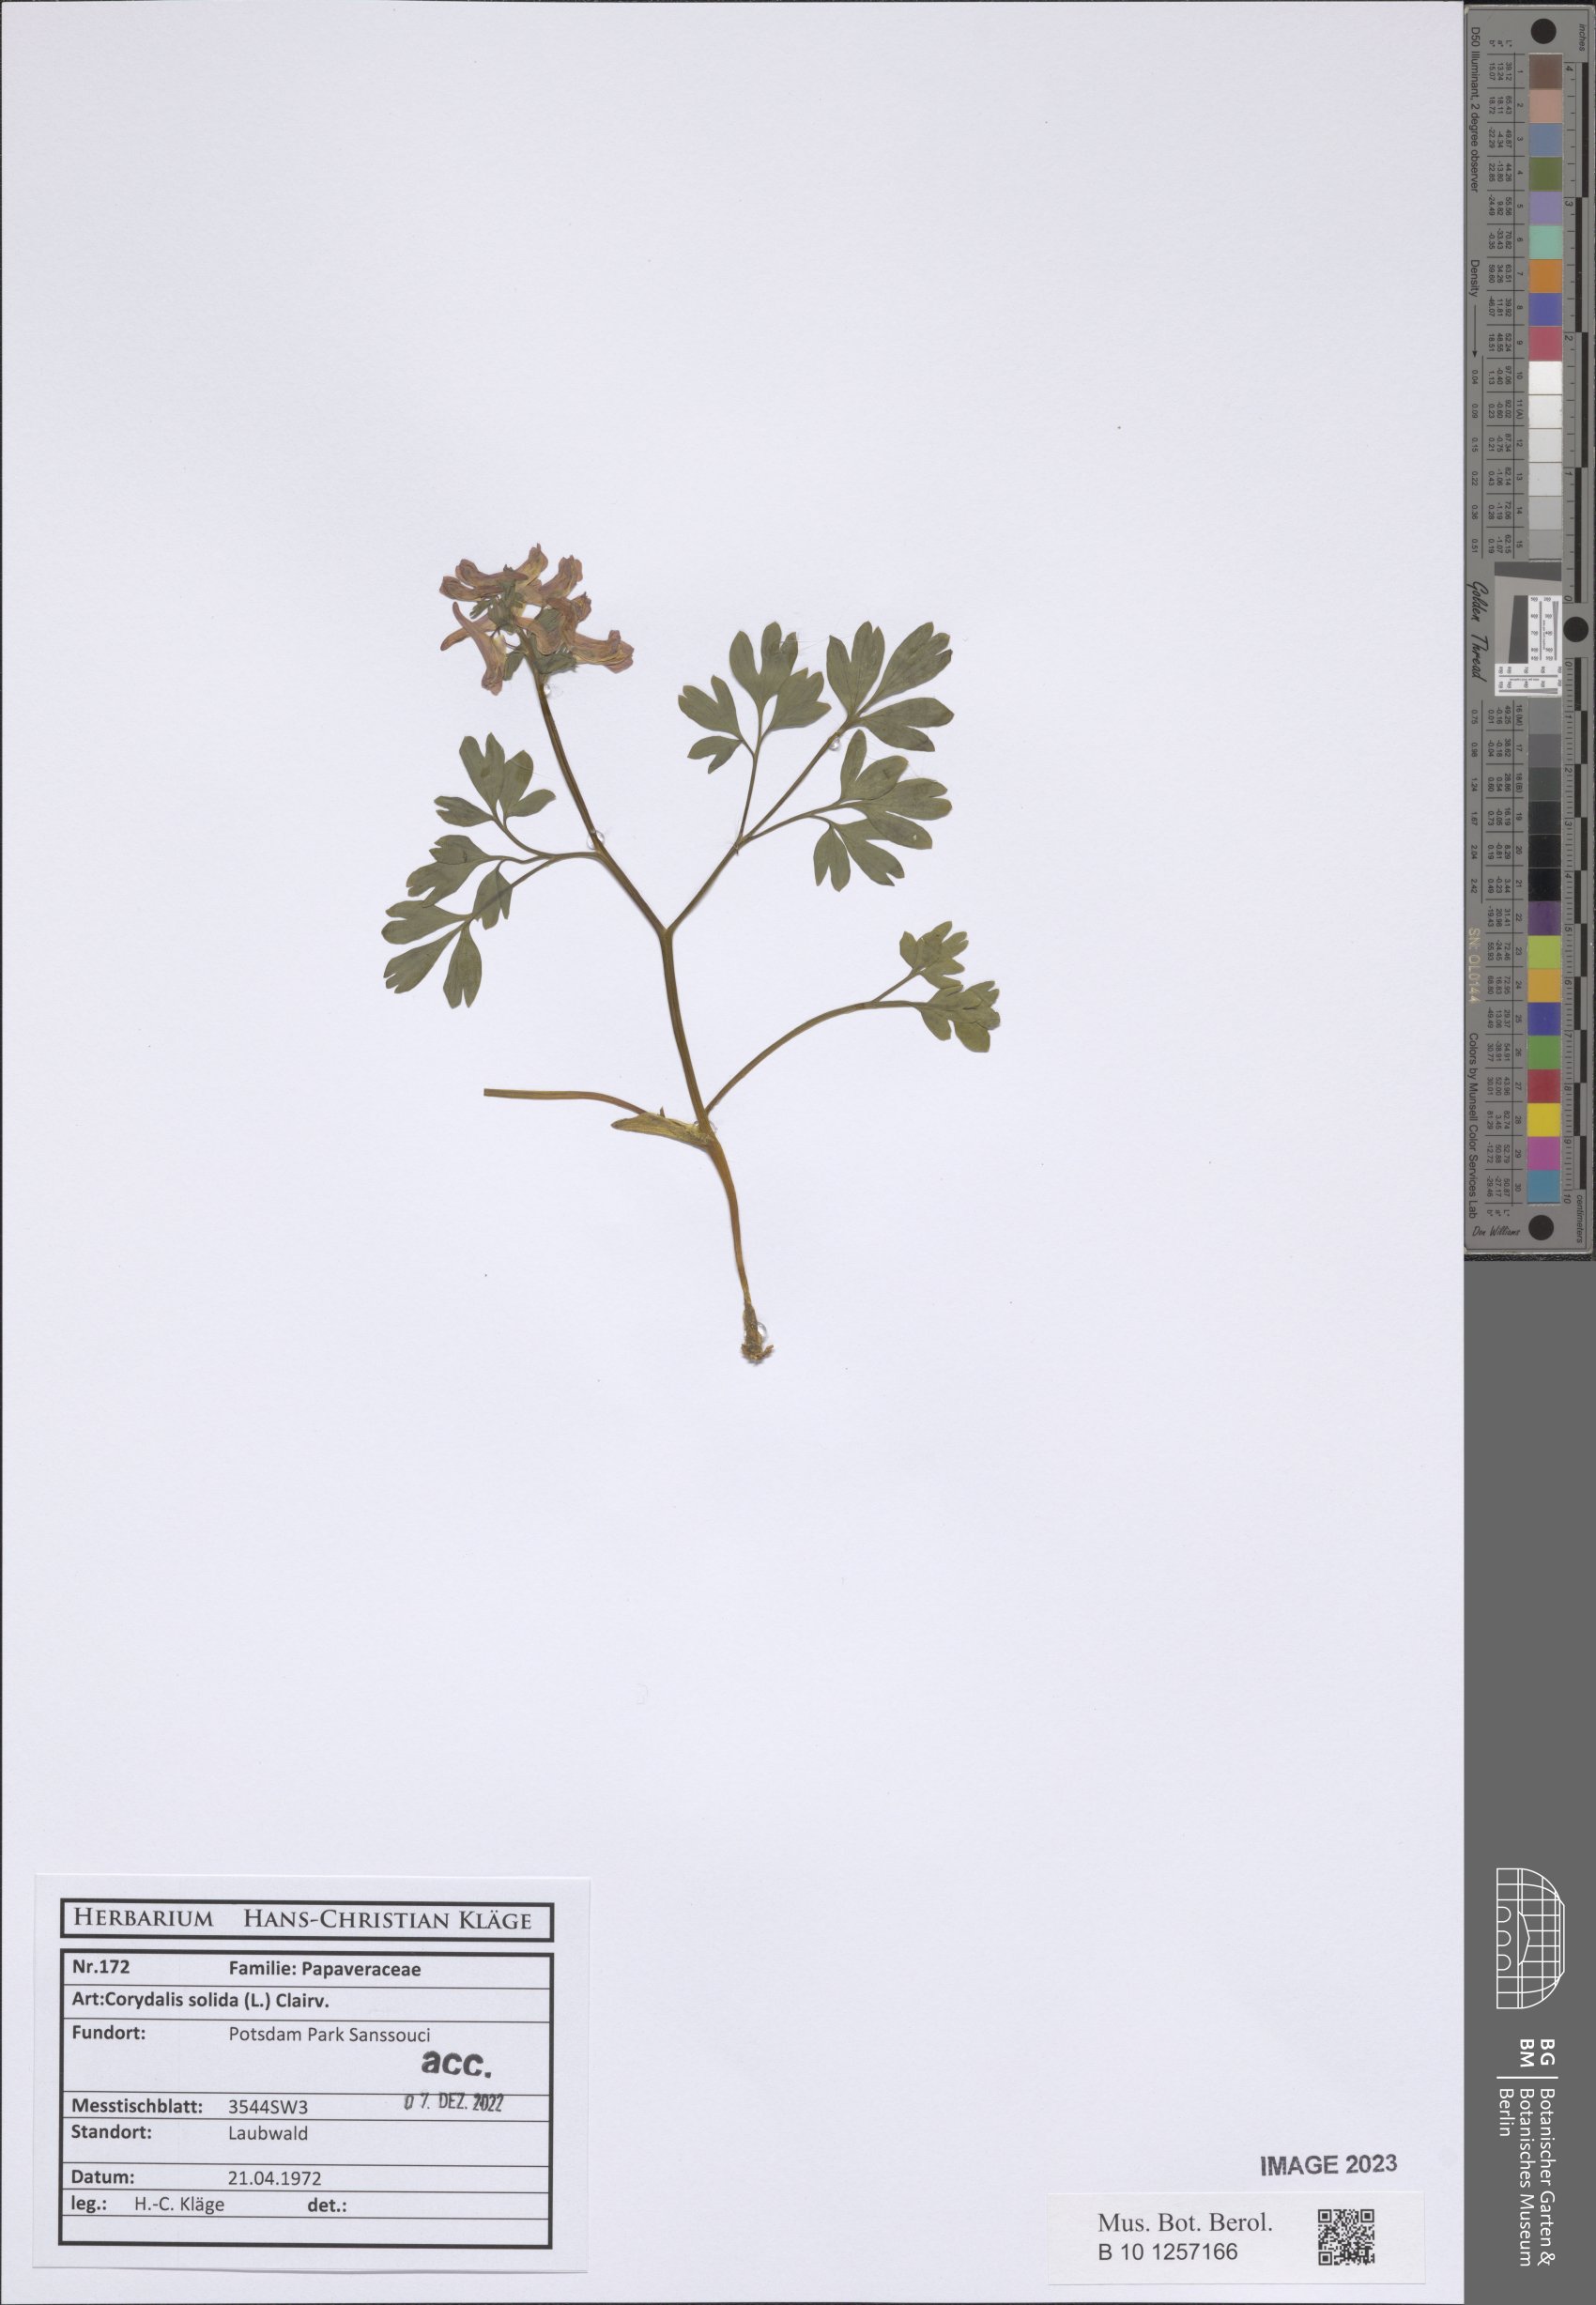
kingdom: Plantae
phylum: Tracheophyta
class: Magnoliopsida
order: Ranunculales
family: Papaveraceae
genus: Corydalis
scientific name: Corydalis solida
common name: Bird-in-a-bush
